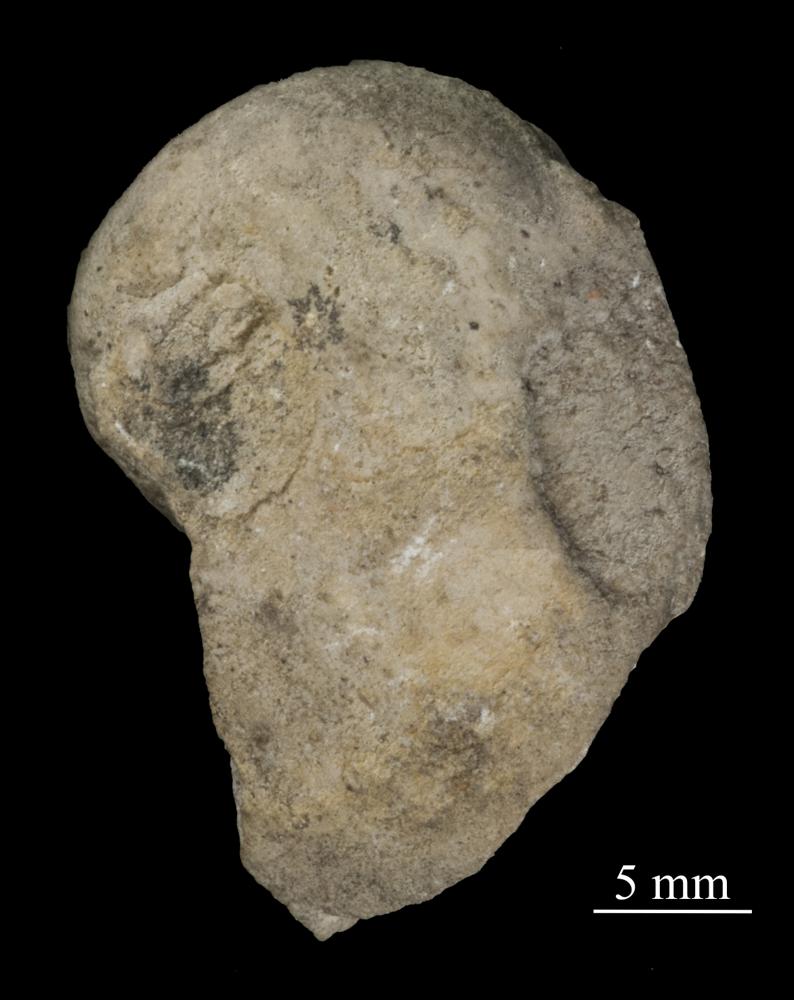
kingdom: Animalia
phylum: Mollusca
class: Gastropoda
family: Bellerophontidae
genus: Cymbularia
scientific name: Cymbularia Bellerophon cultrijugata
